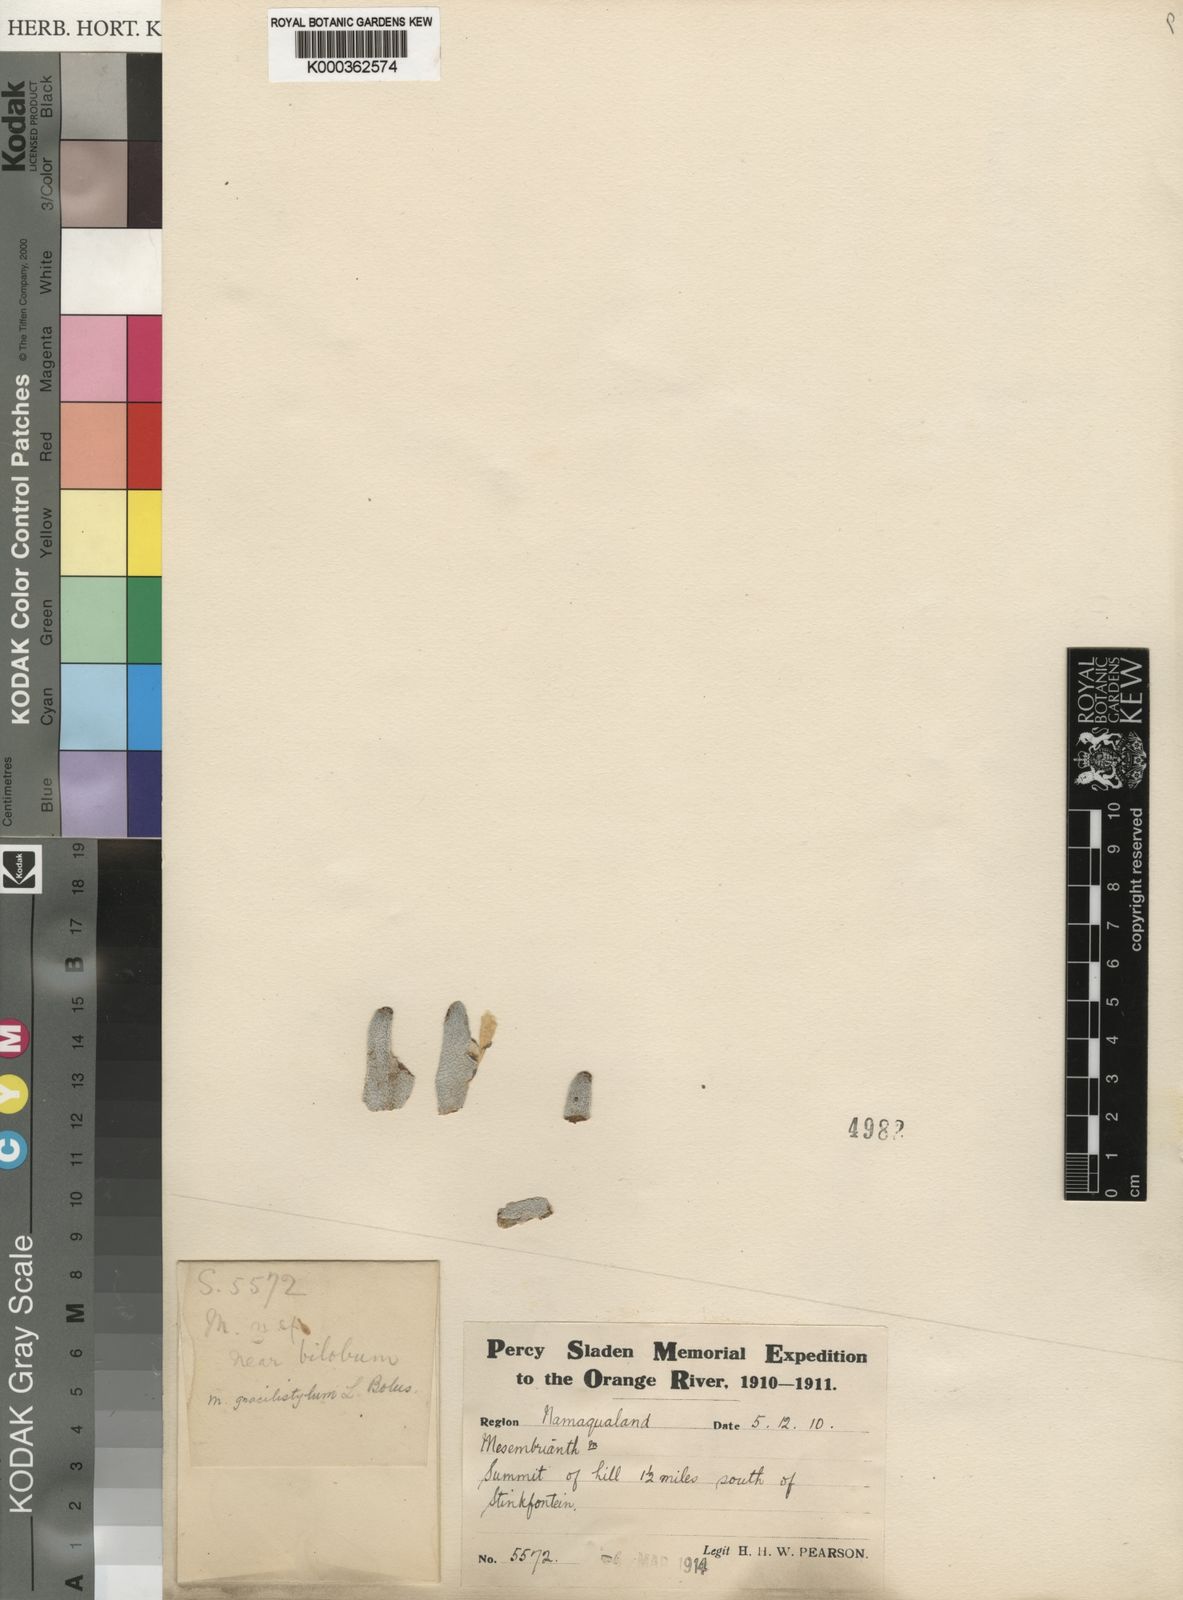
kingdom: Plantae
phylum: Tracheophyta
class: Magnoliopsida
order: Caryophyllales
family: Aizoaceae
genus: Conophytum
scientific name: Conophytum
